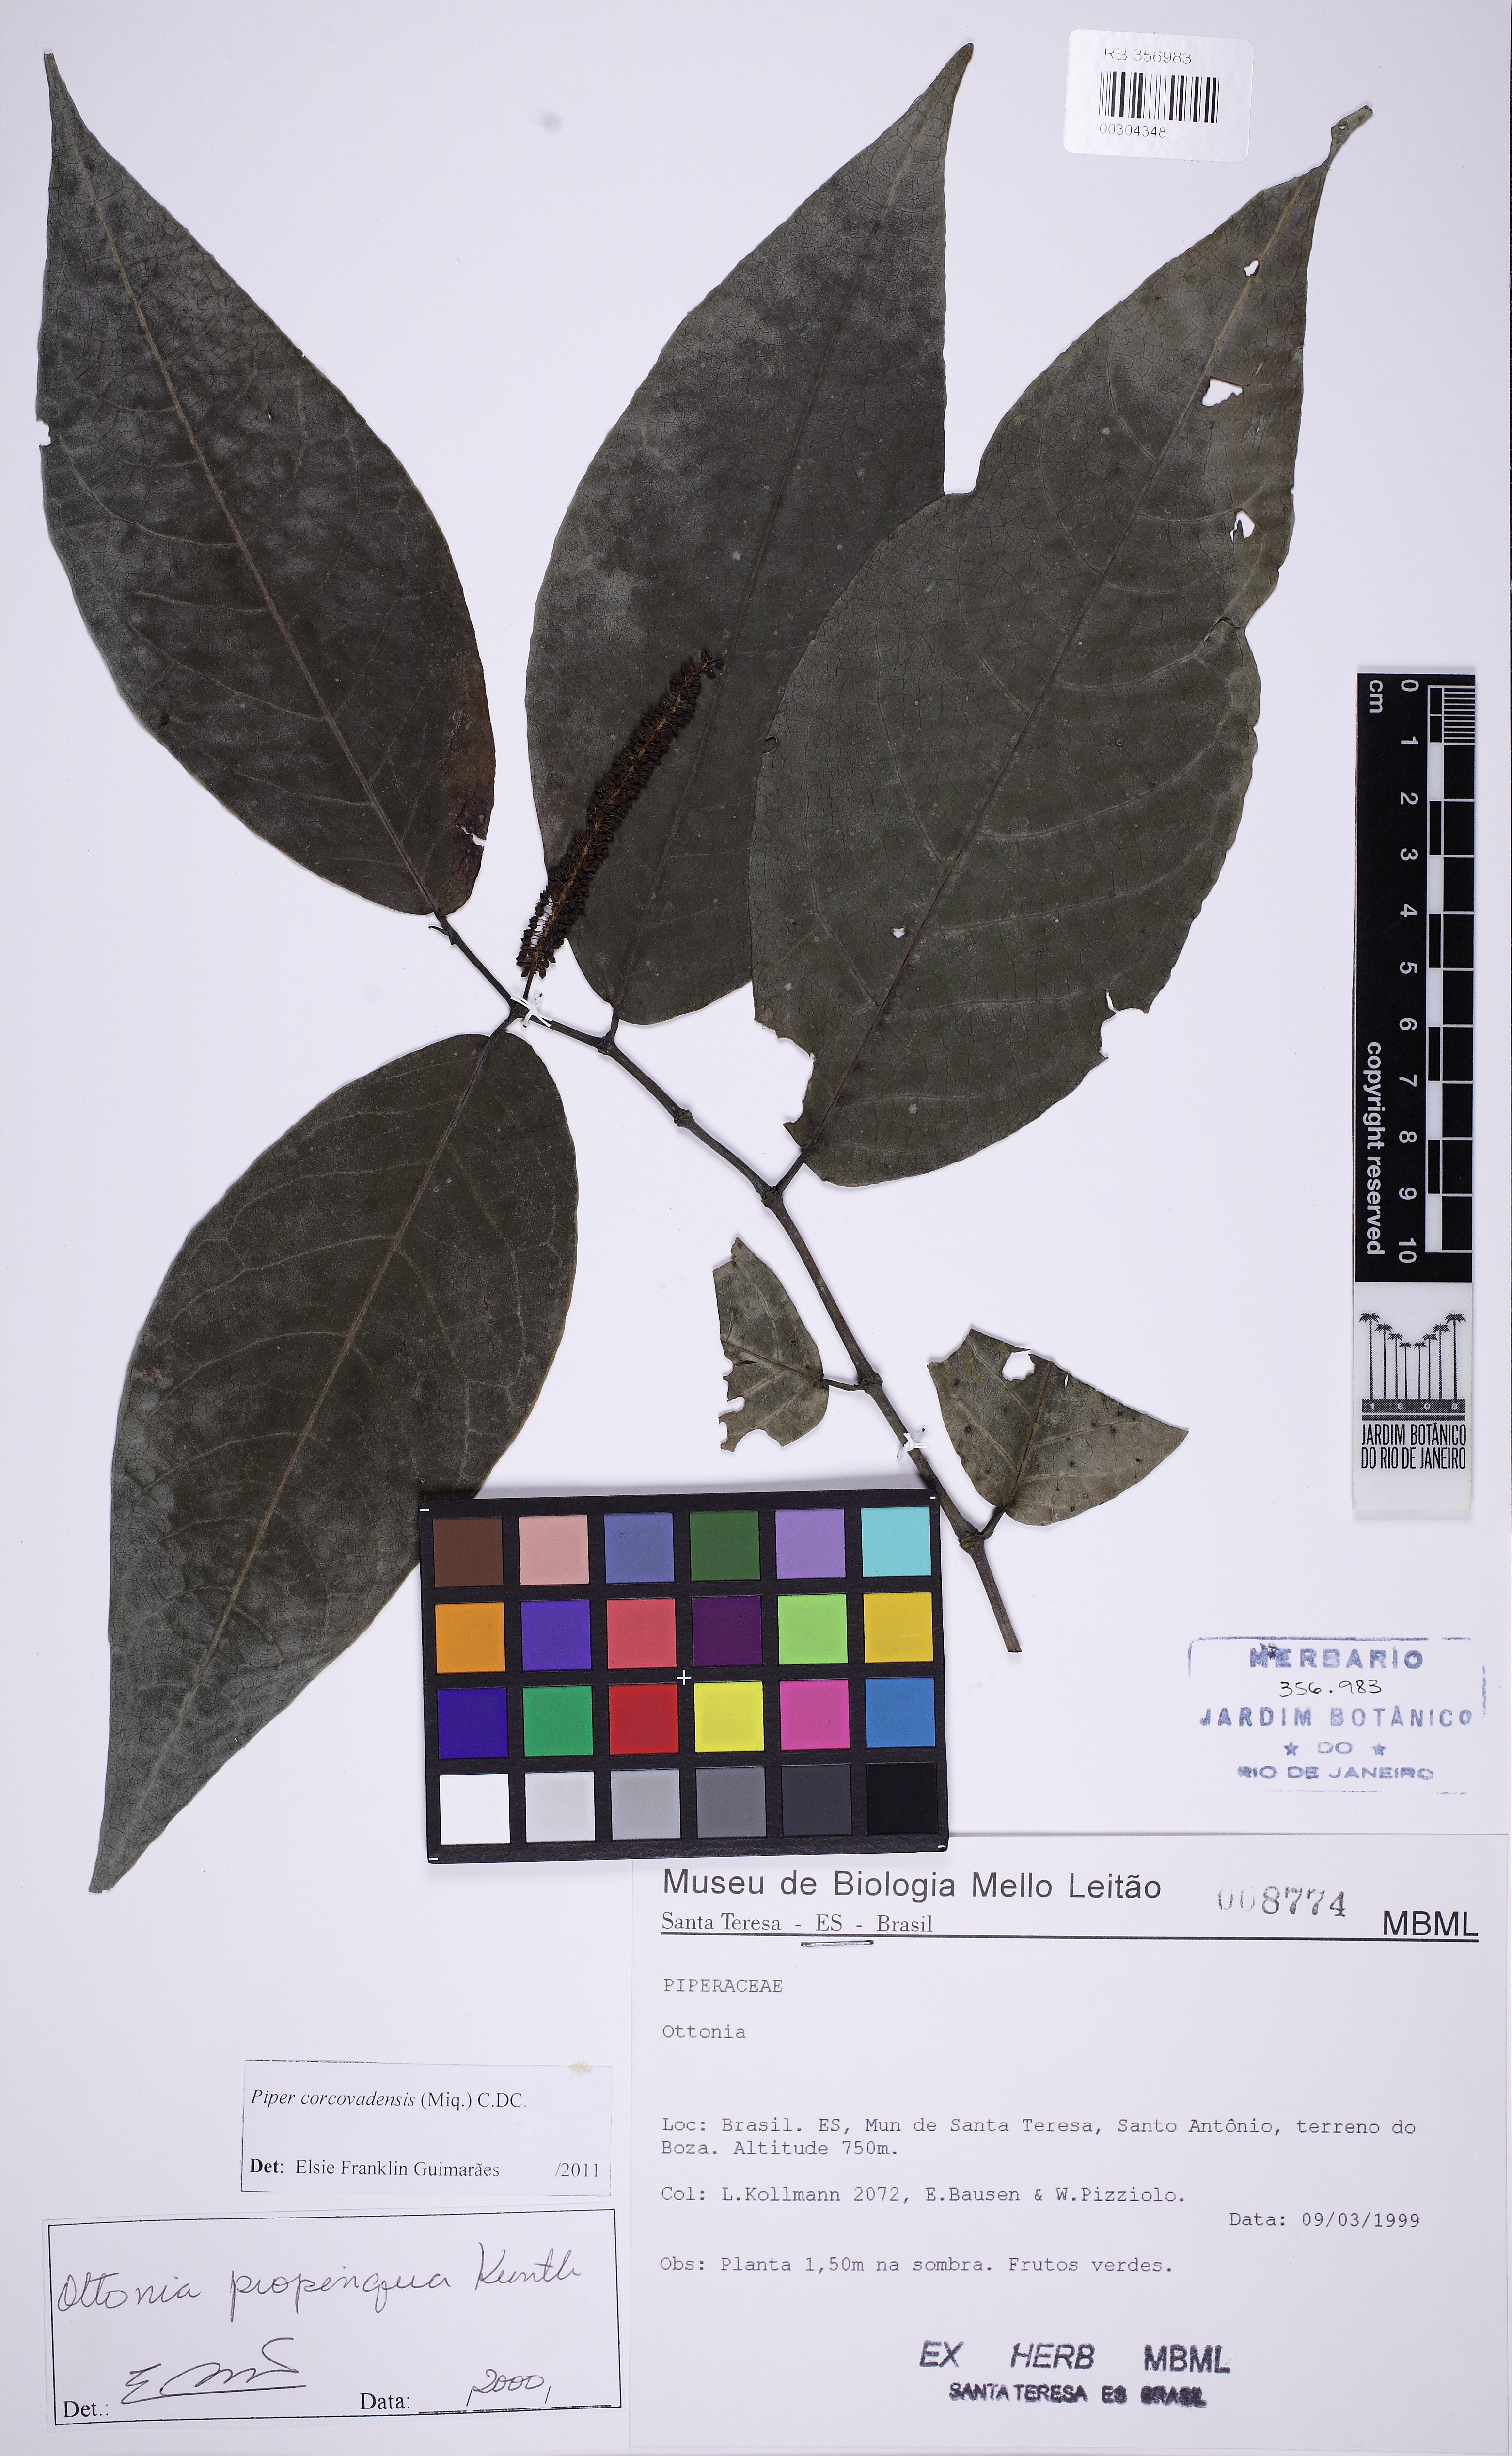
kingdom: Plantae
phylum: Tracheophyta
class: Magnoliopsida
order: Piperales
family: Piperaceae
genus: Piper
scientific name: Piper corcovadense
